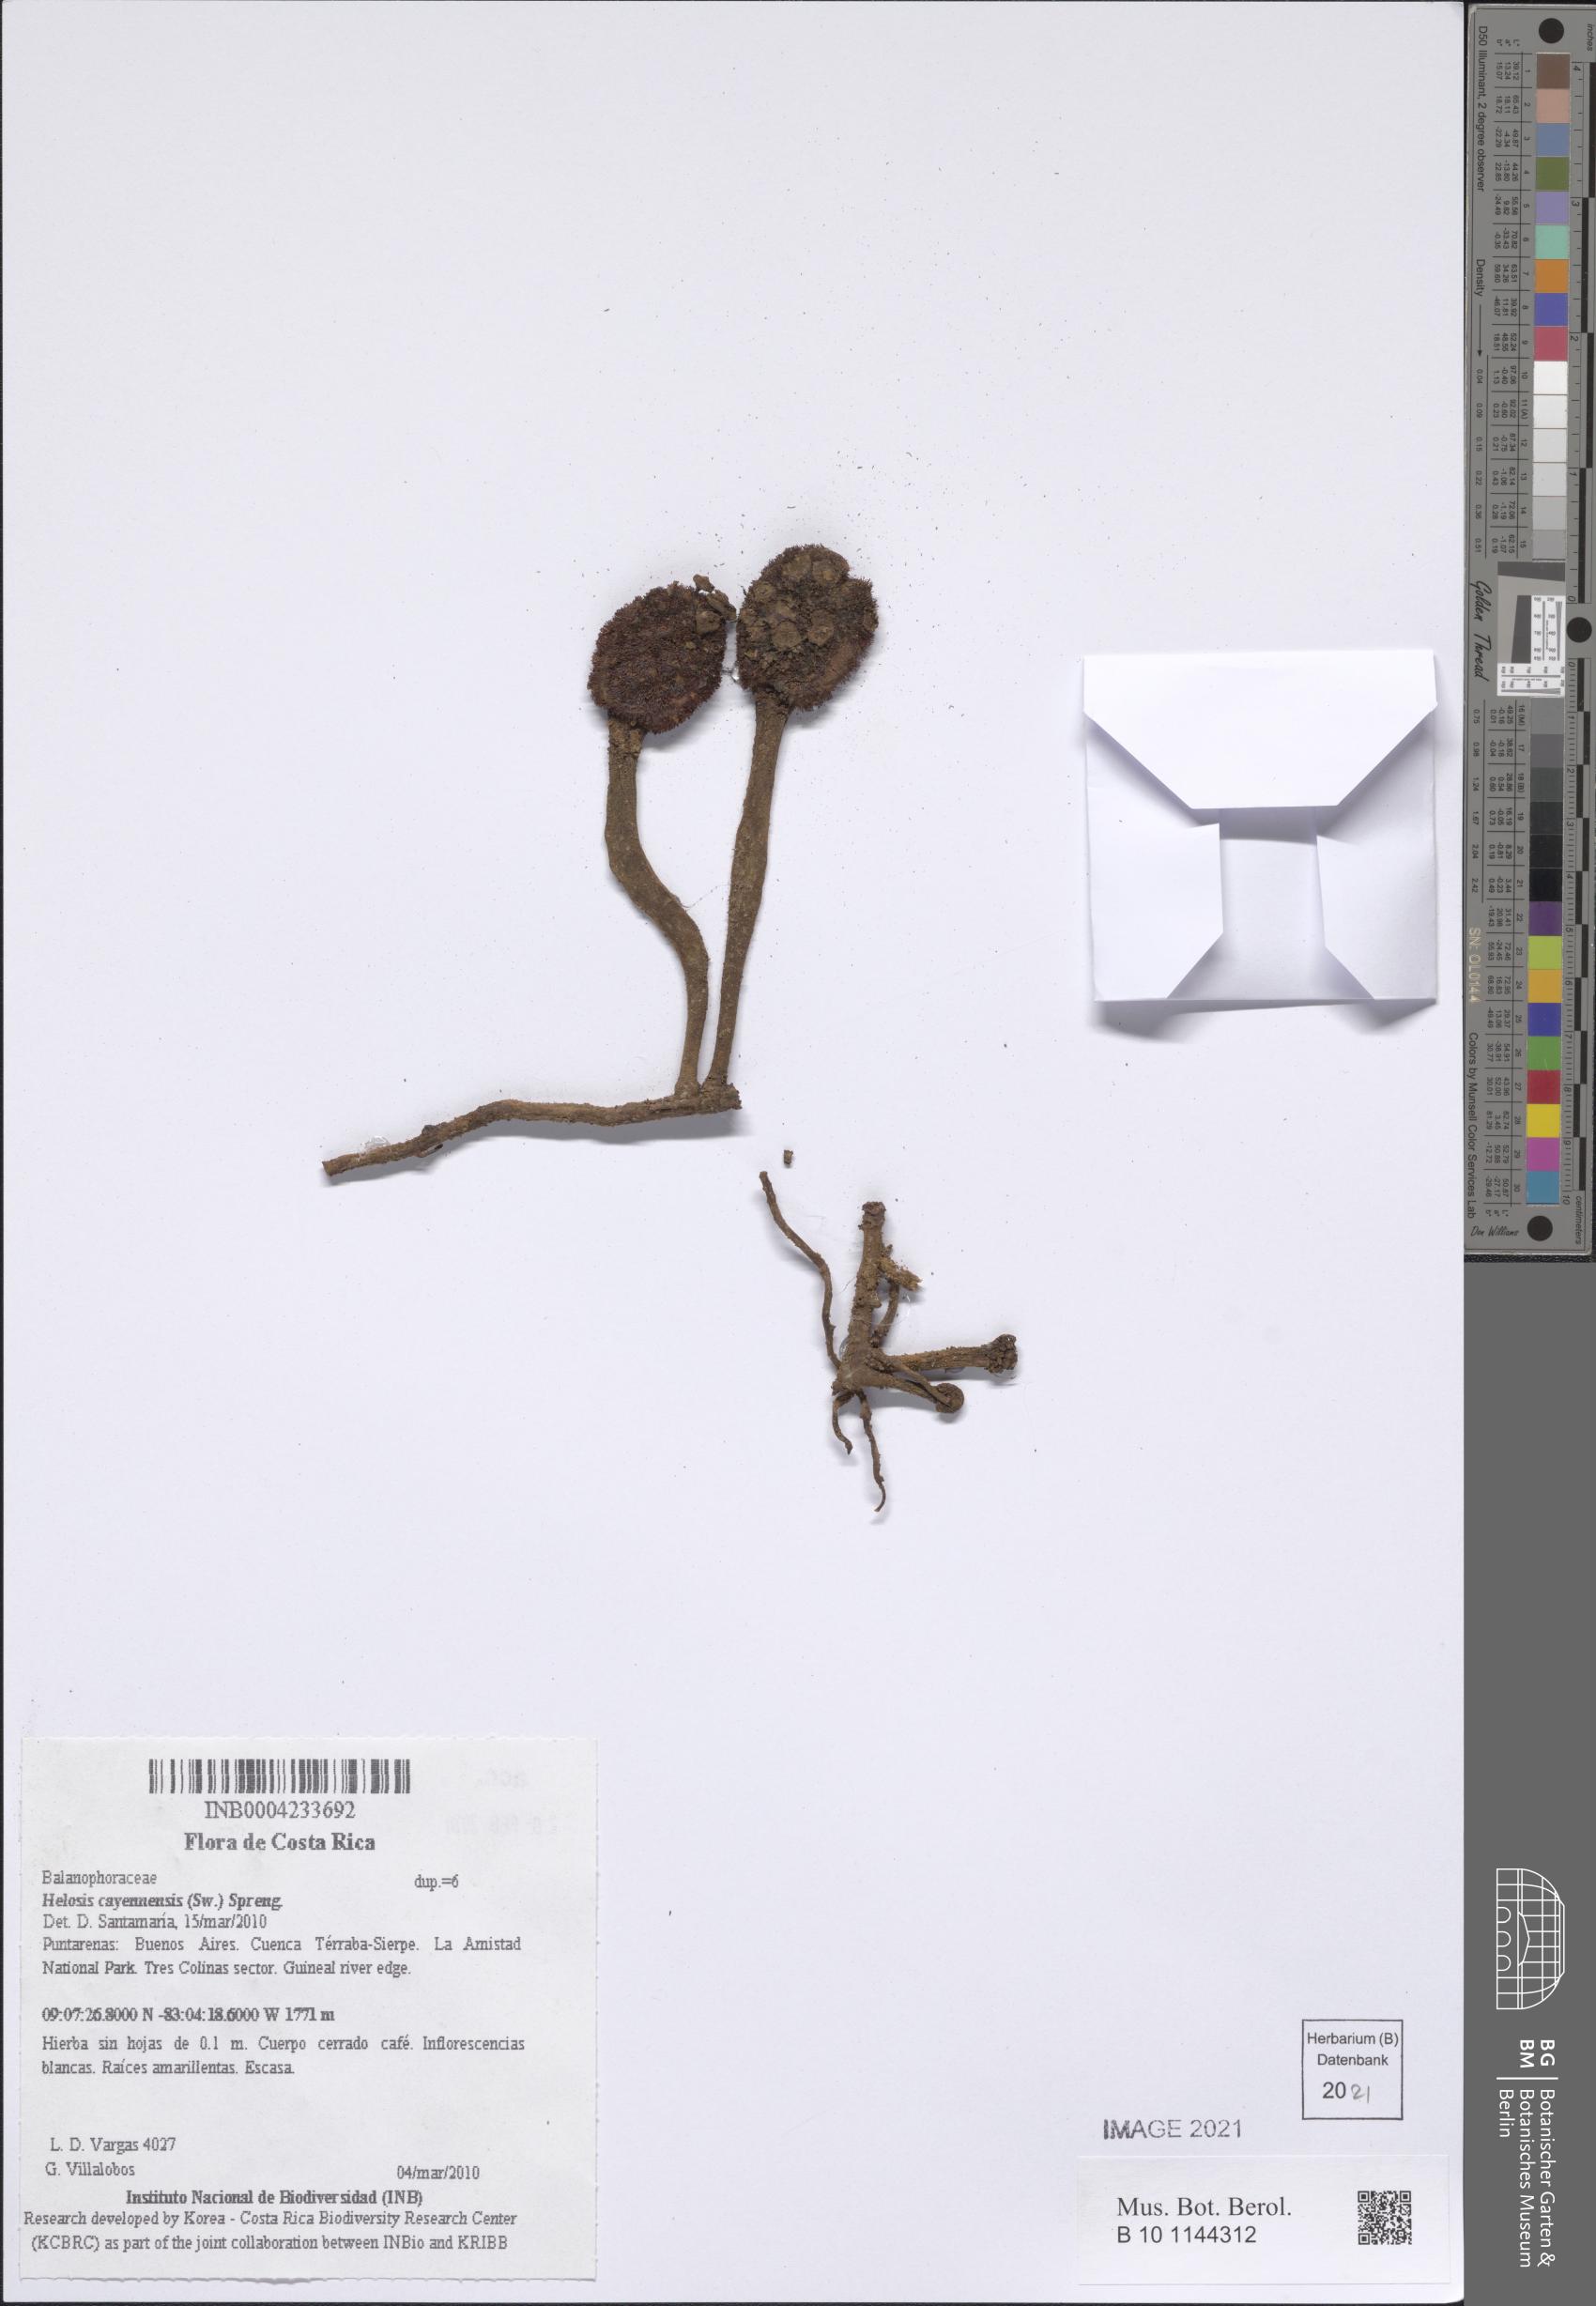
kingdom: Plantae
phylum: Tracheophyta
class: Magnoliopsida
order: Santalales
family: Balanophoraceae
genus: Helosis
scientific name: Helosis cayennensis
